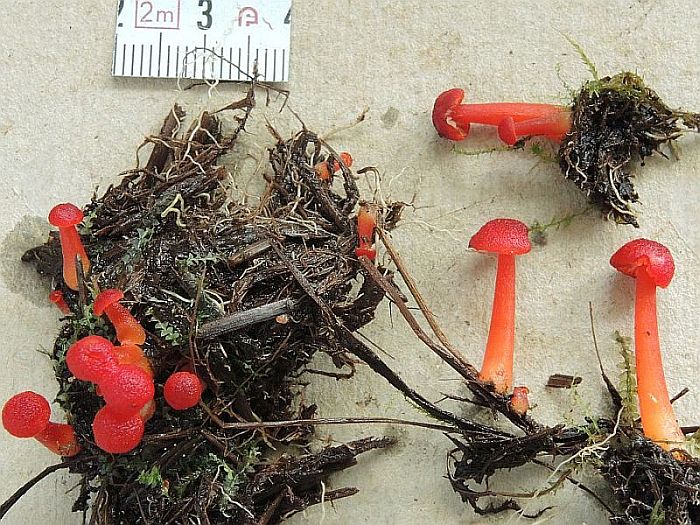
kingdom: Fungi
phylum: Basidiomycota
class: Agaricomycetes
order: Agaricales
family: Hygrophoraceae
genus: Hygrocybe
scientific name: Hygrocybe
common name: vokshat
